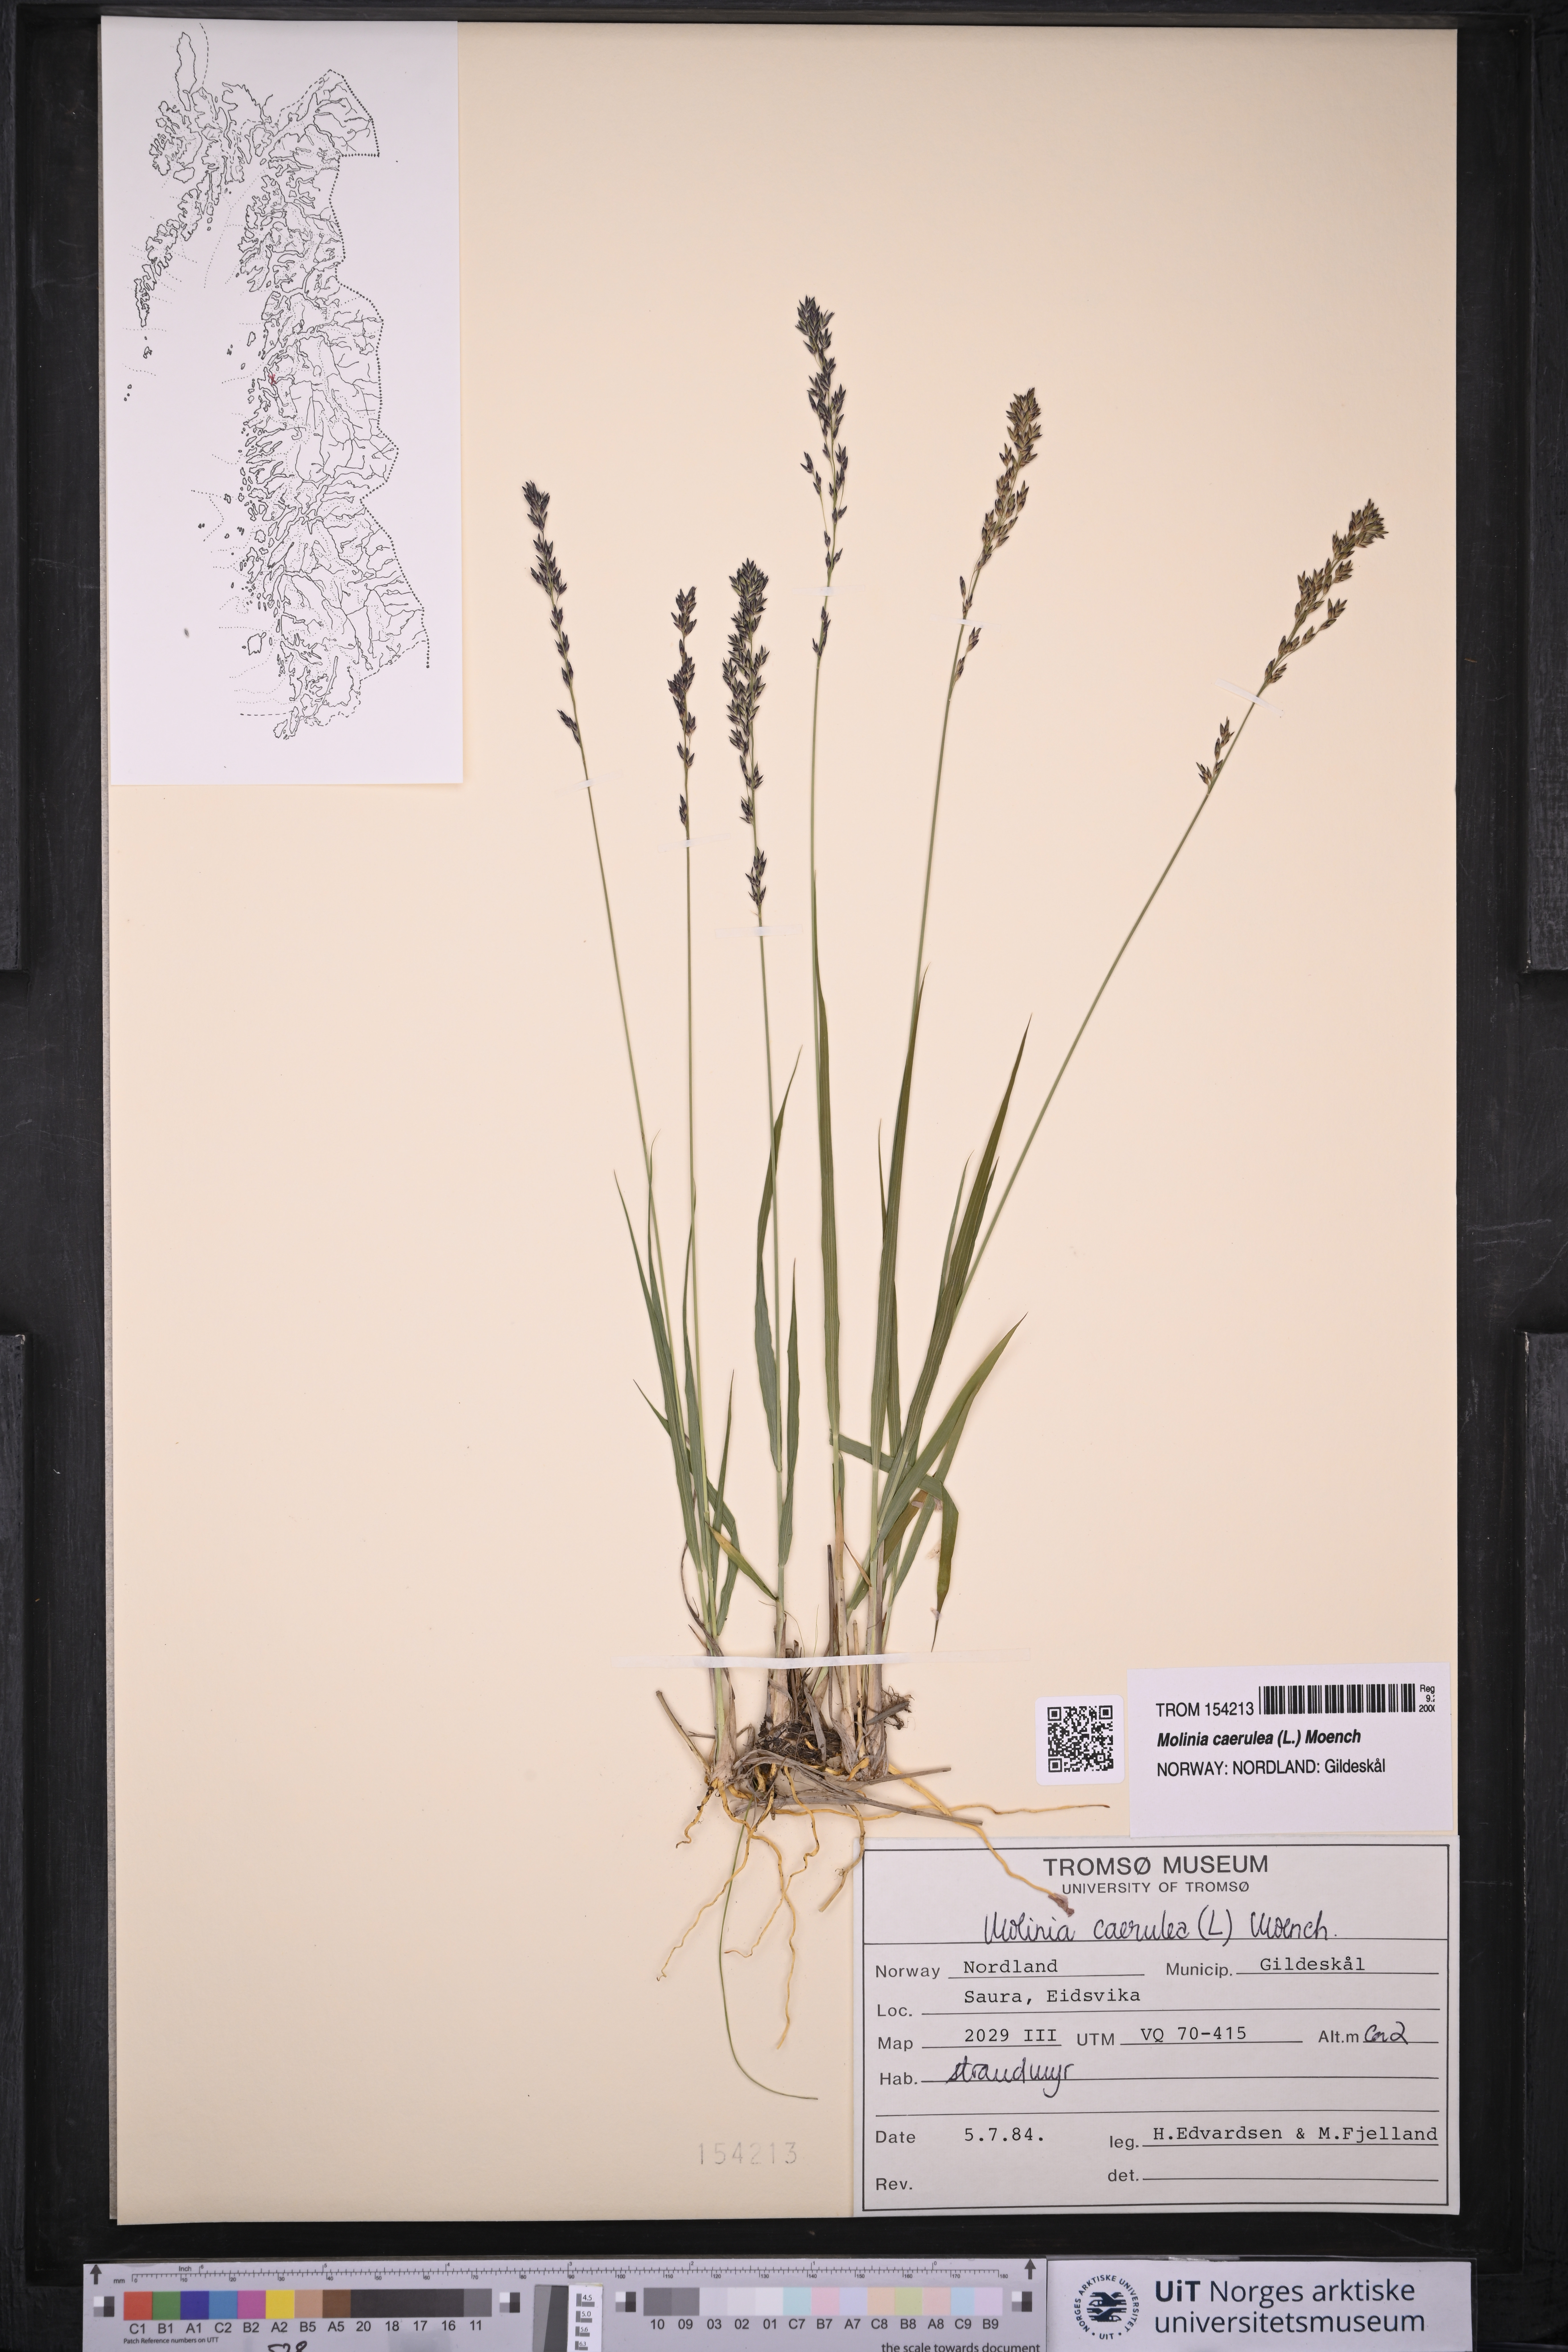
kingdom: Plantae
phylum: Tracheophyta
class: Liliopsida
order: Poales
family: Poaceae
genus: Molinia
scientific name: Molinia caerulea
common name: Purple moor-grass
